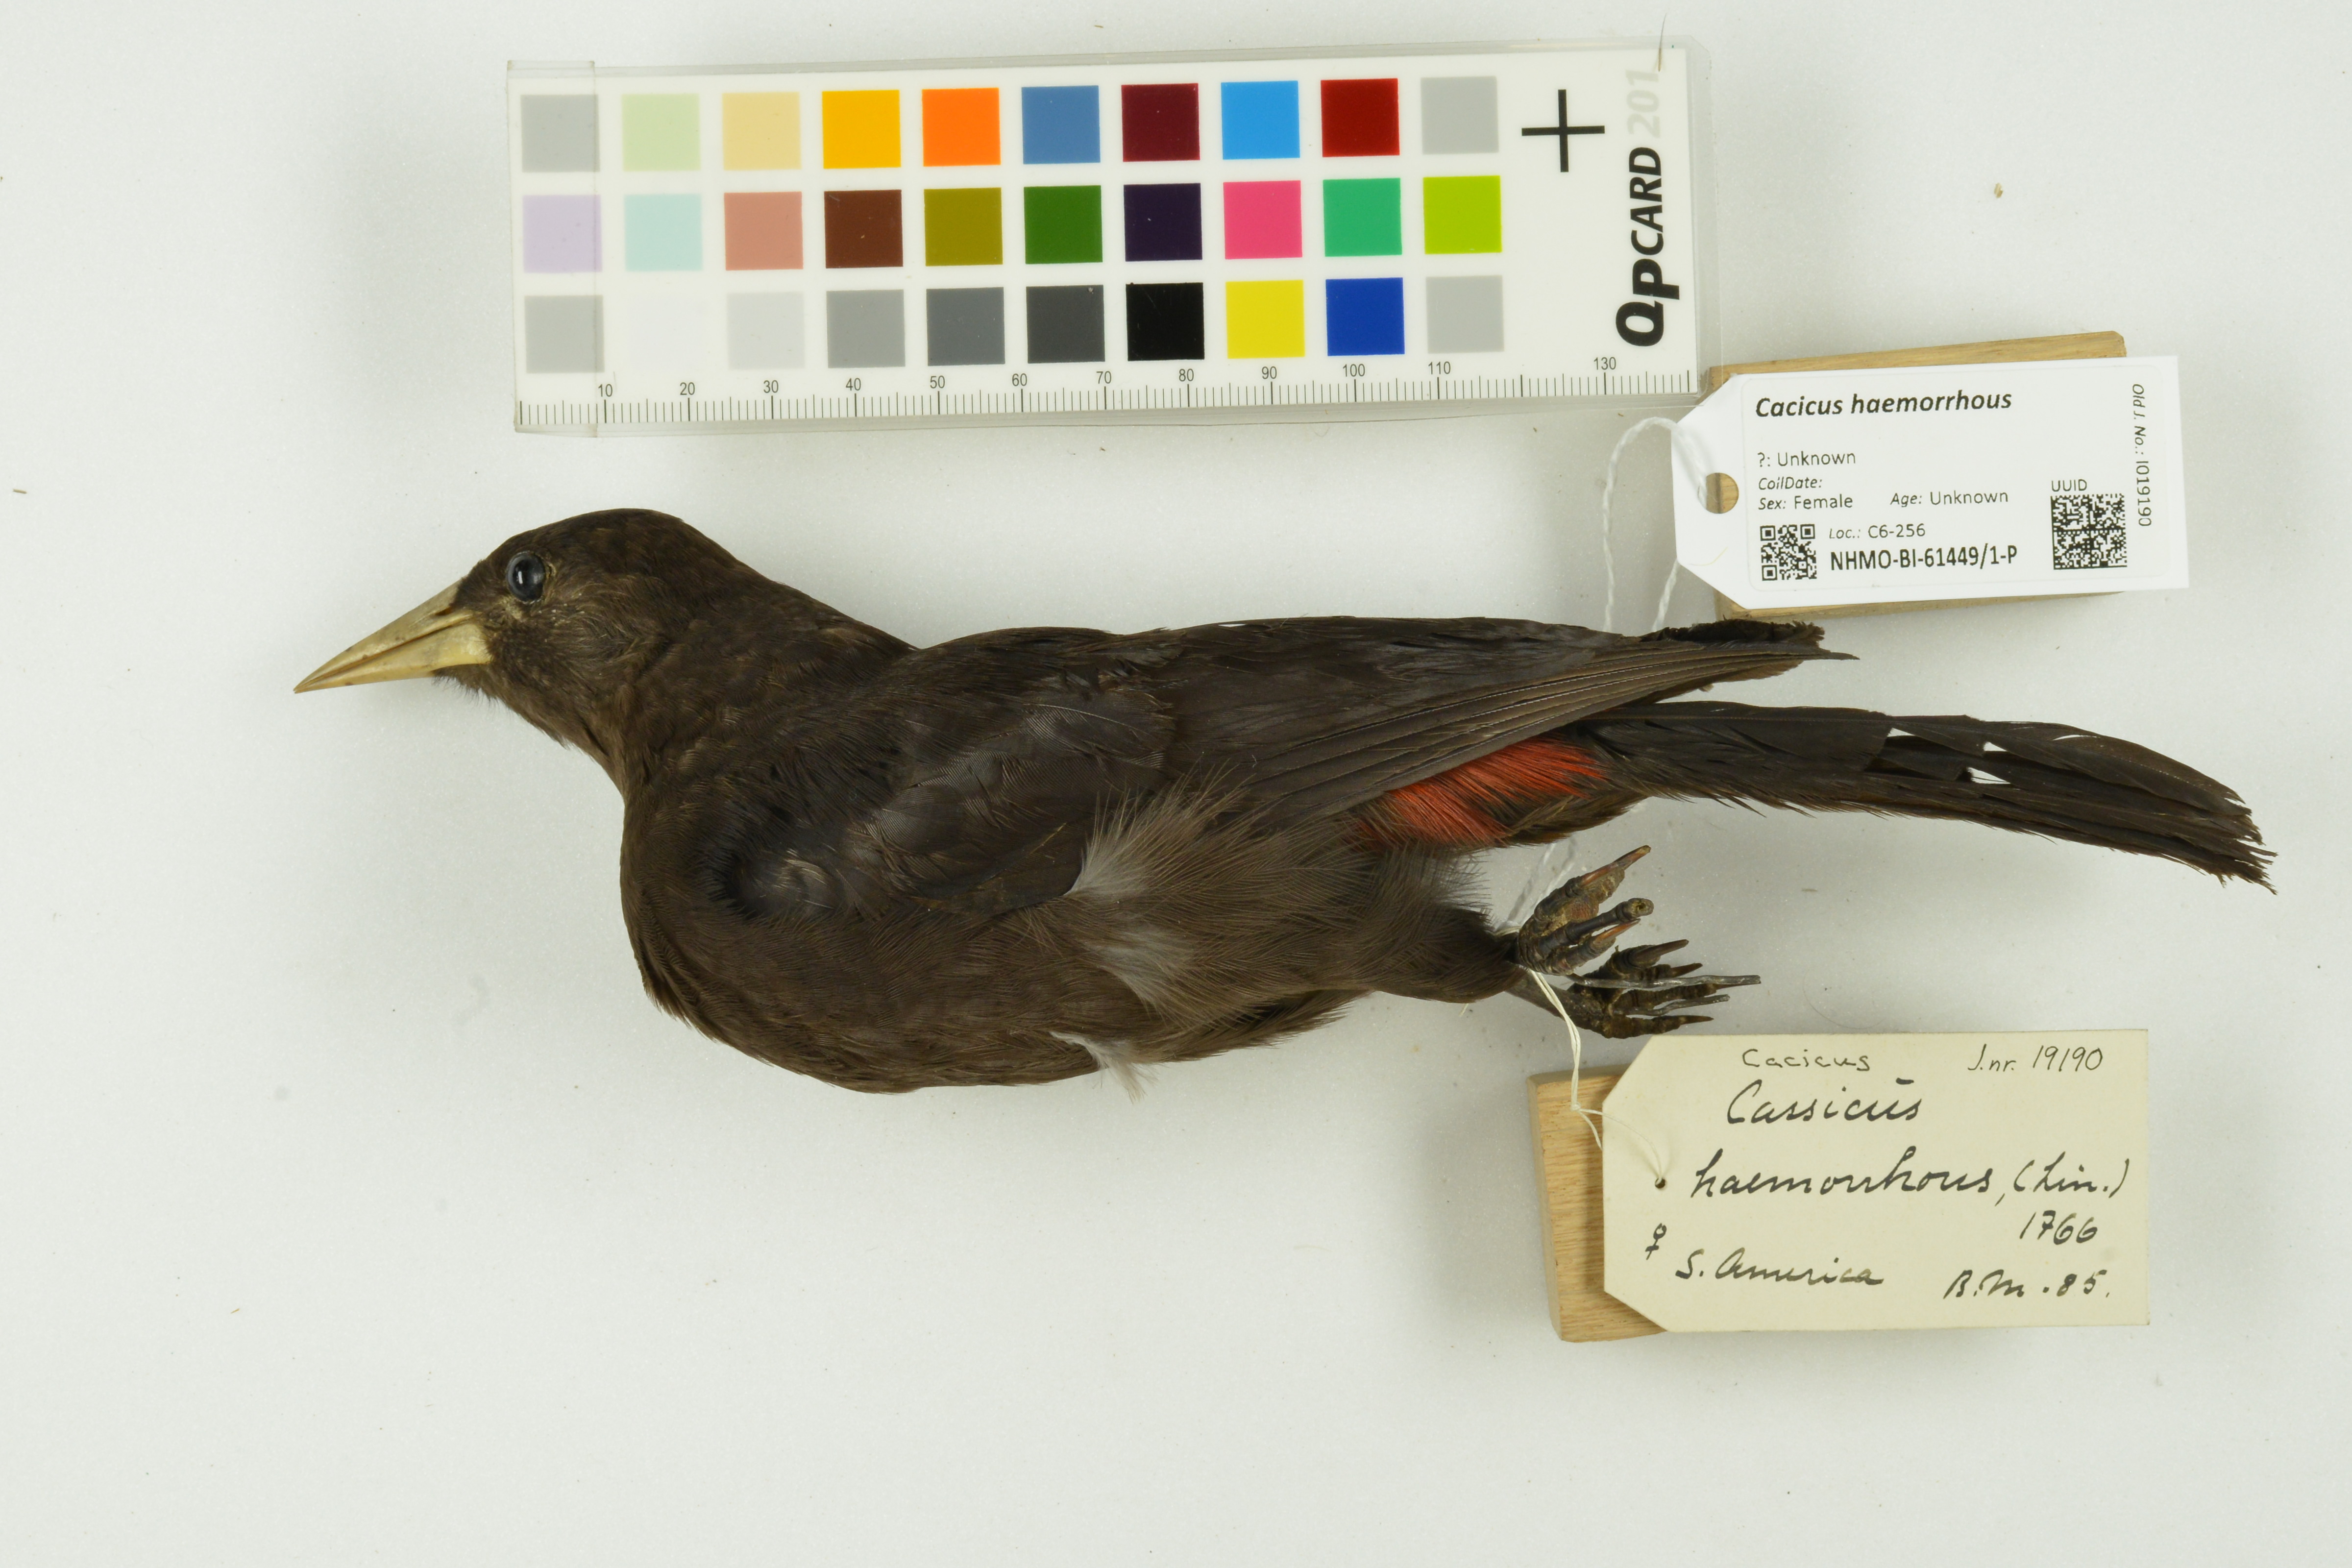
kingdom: Animalia
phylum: Chordata
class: Aves
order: Passeriformes
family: Icteridae
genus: Cacicus
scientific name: Cacicus haemorrhous
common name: Red-rumped cacique
